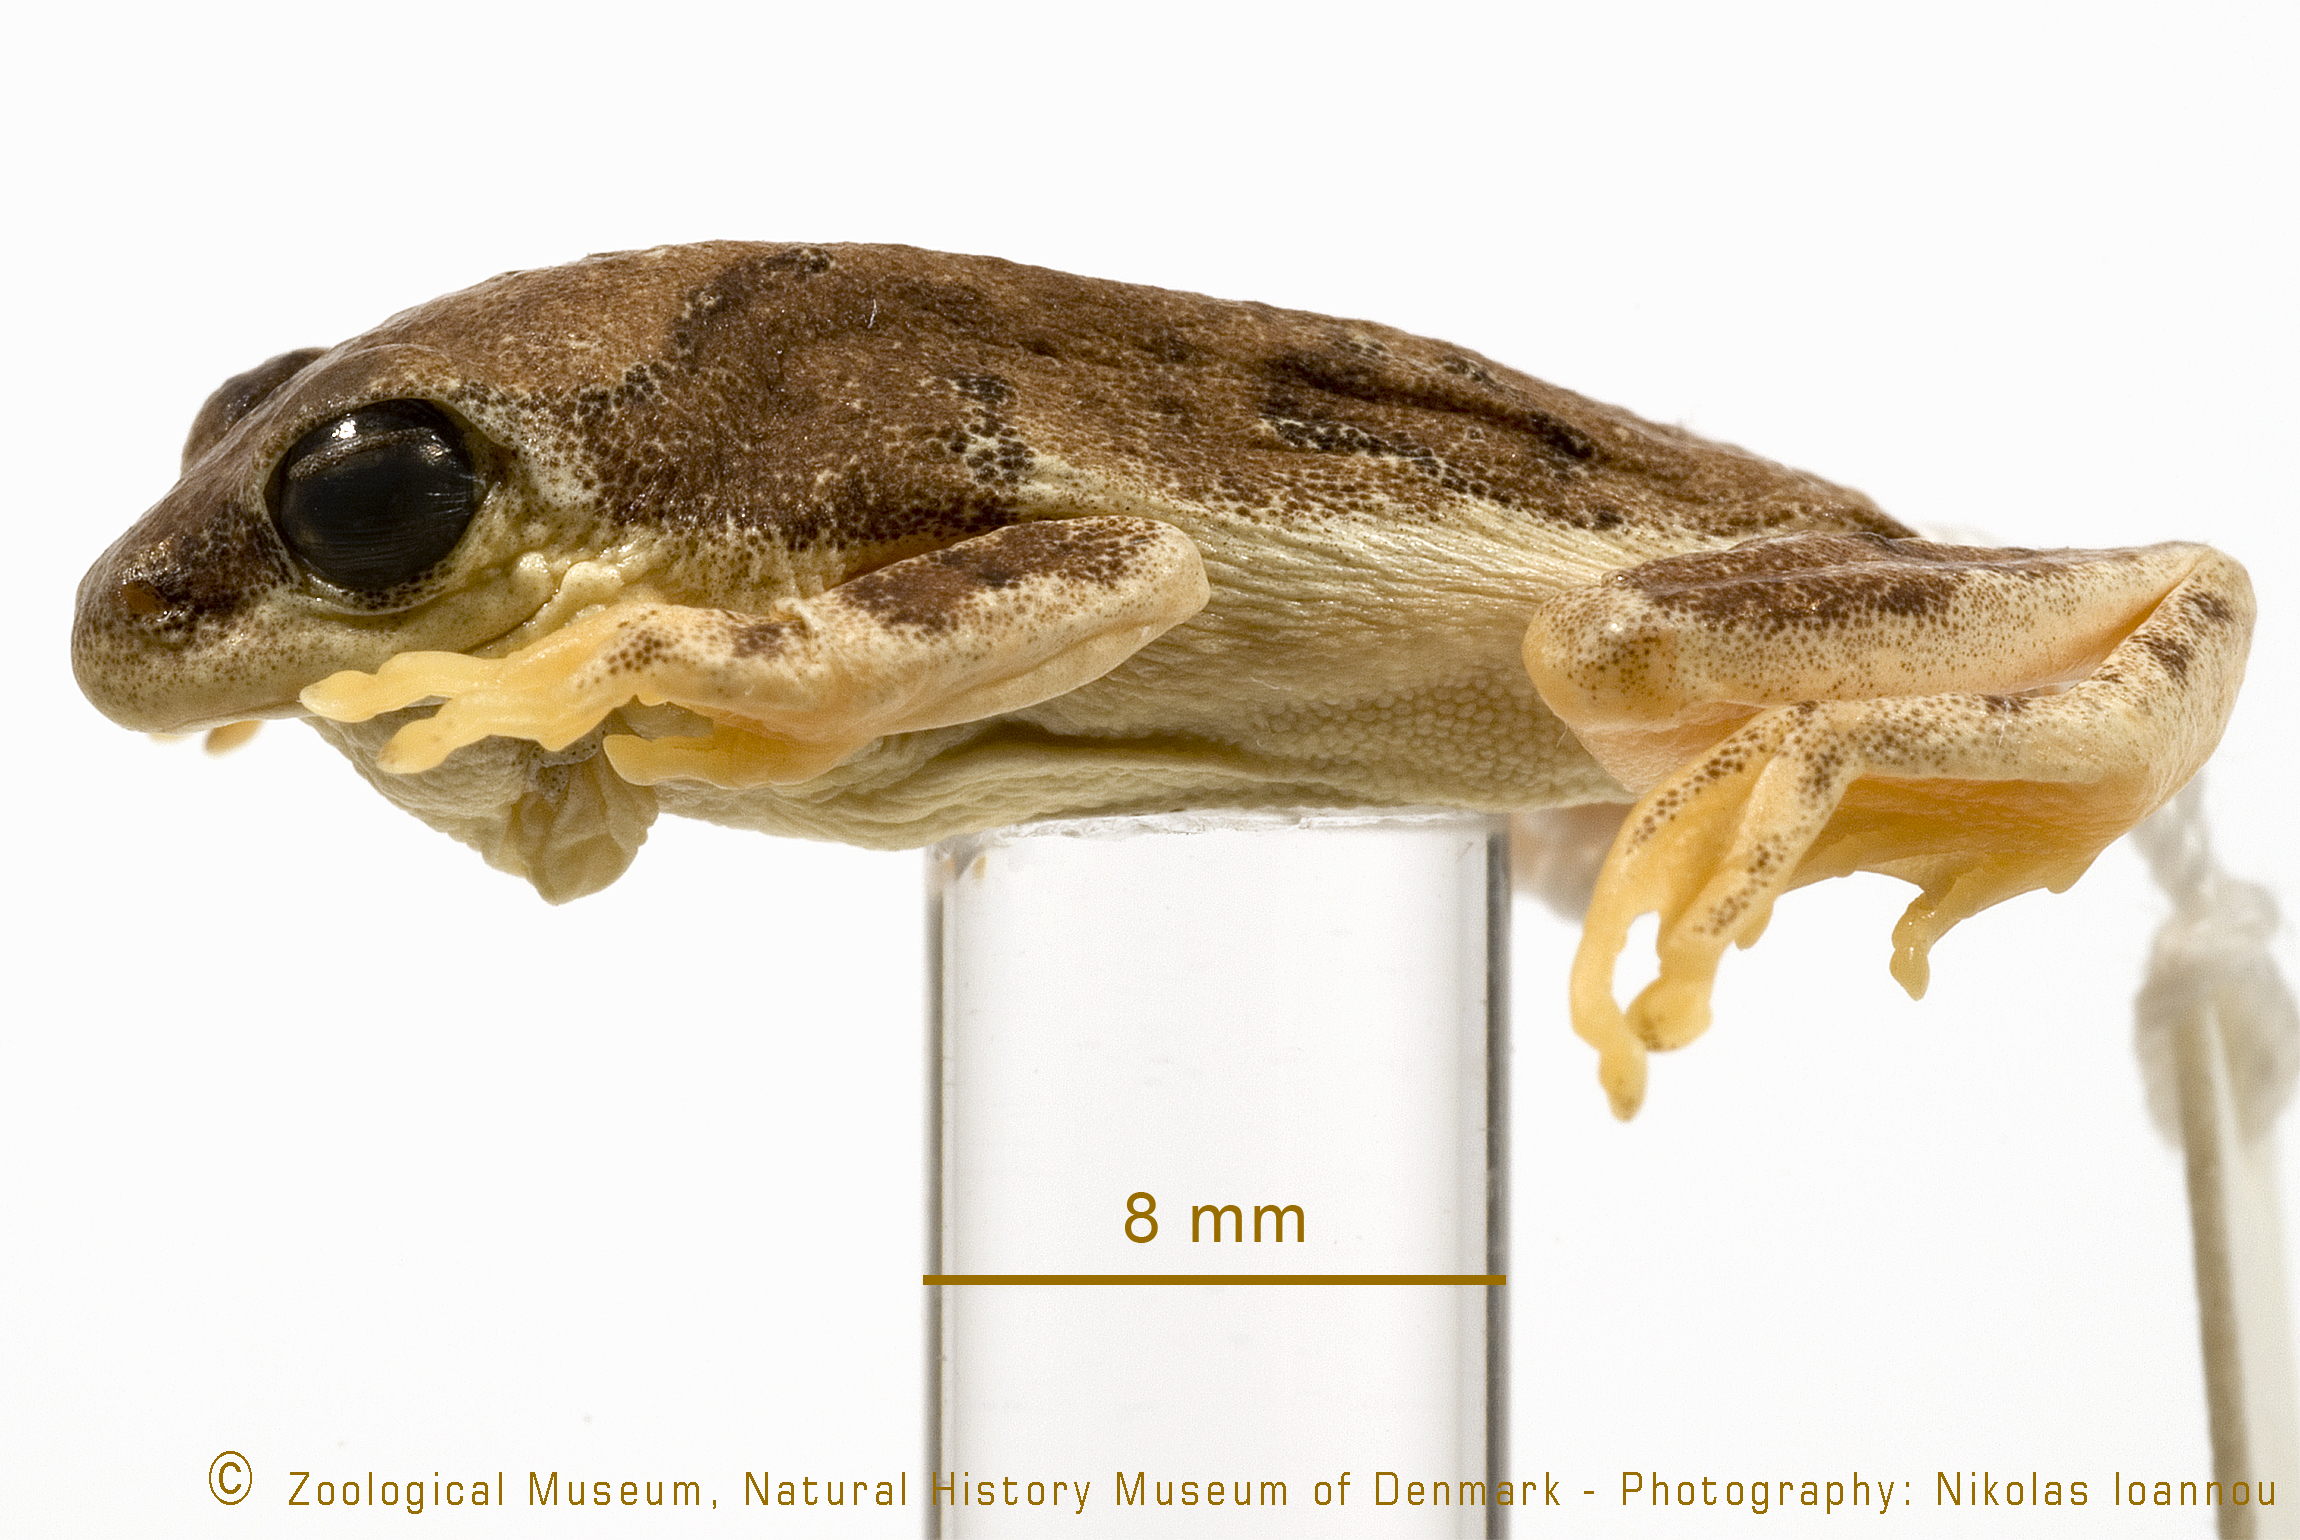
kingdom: Animalia
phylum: Chordata
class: Amphibia
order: Anura
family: Hyperoliidae
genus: Hyperolius
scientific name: Hyperolius marginatus
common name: Silver-striped sedgefrog
